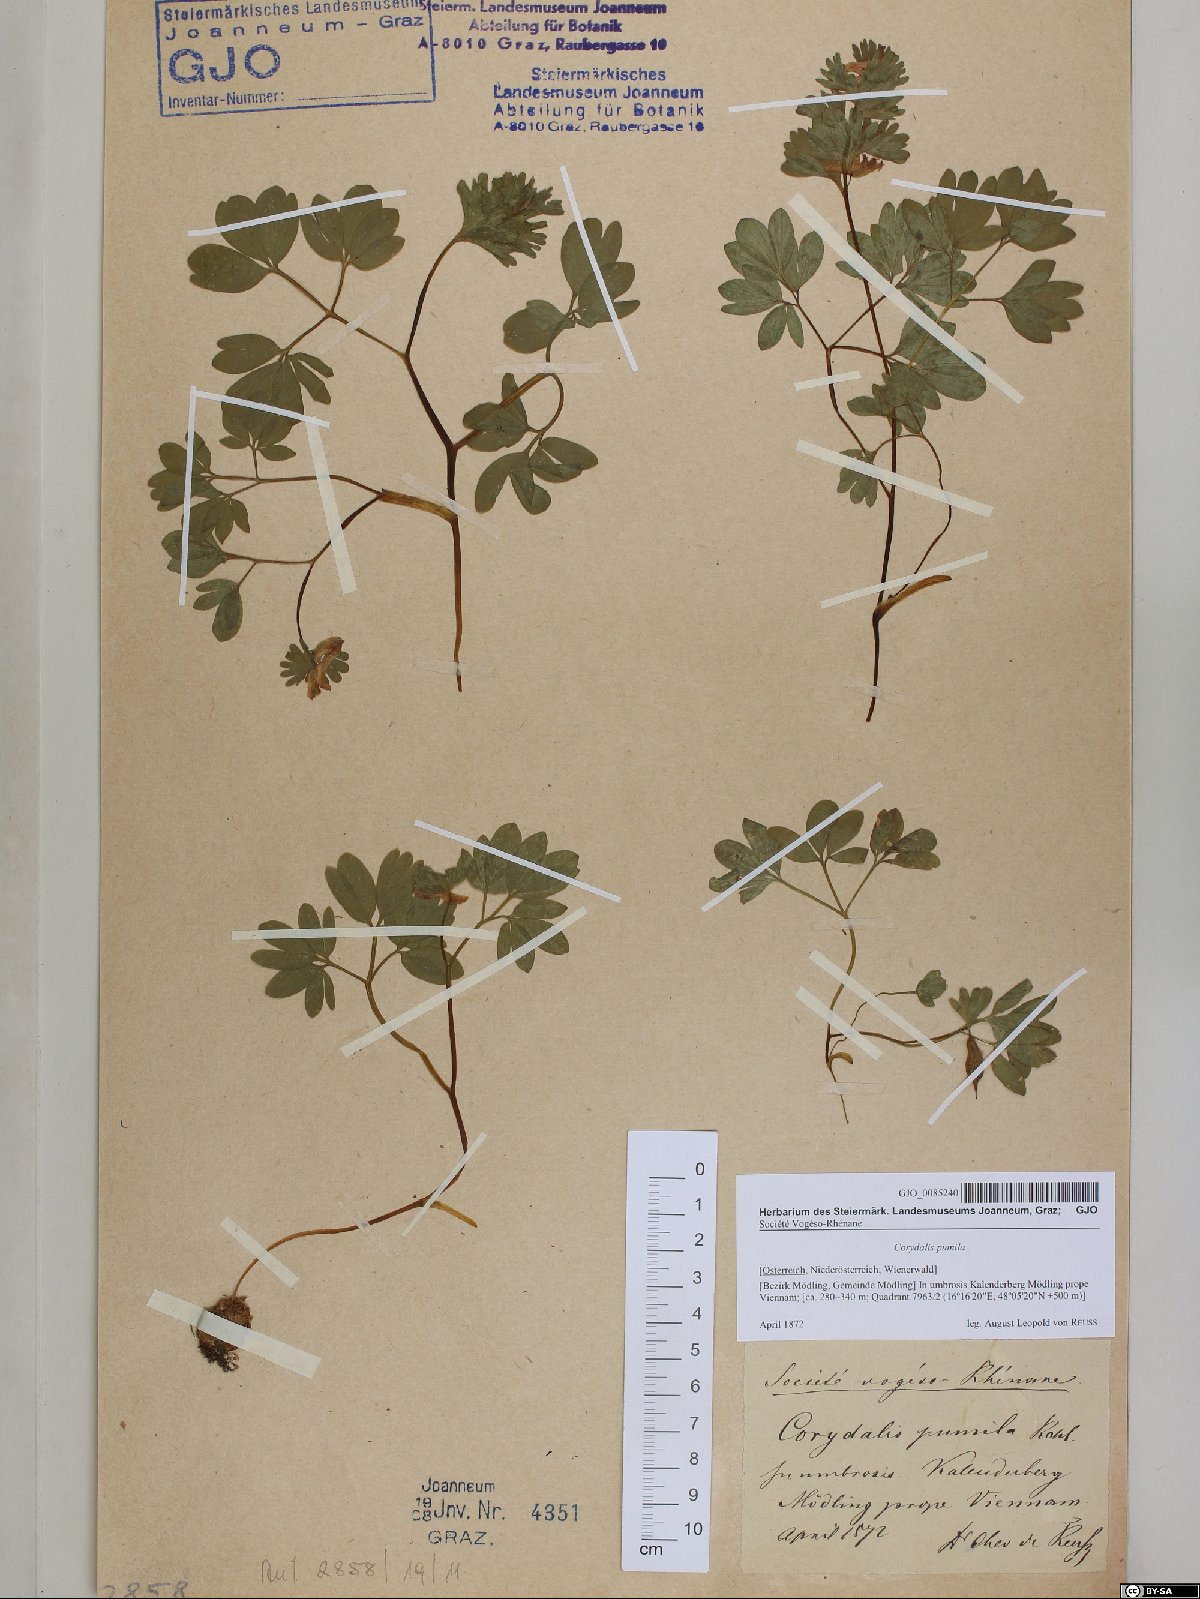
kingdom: Plantae
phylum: Tracheophyta
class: Magnoliopsida
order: Ranunculales
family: Papaveraceae
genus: Corydalis
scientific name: Corydalis pumila
